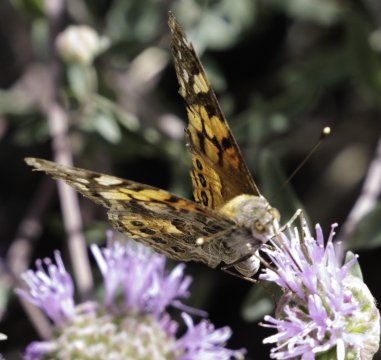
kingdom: Animalia
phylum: Arthropoda
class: Insecta
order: Lepidoptera
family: Nymphalidae
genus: Vanessa
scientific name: Vanessa annabella
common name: West Coast Lady
